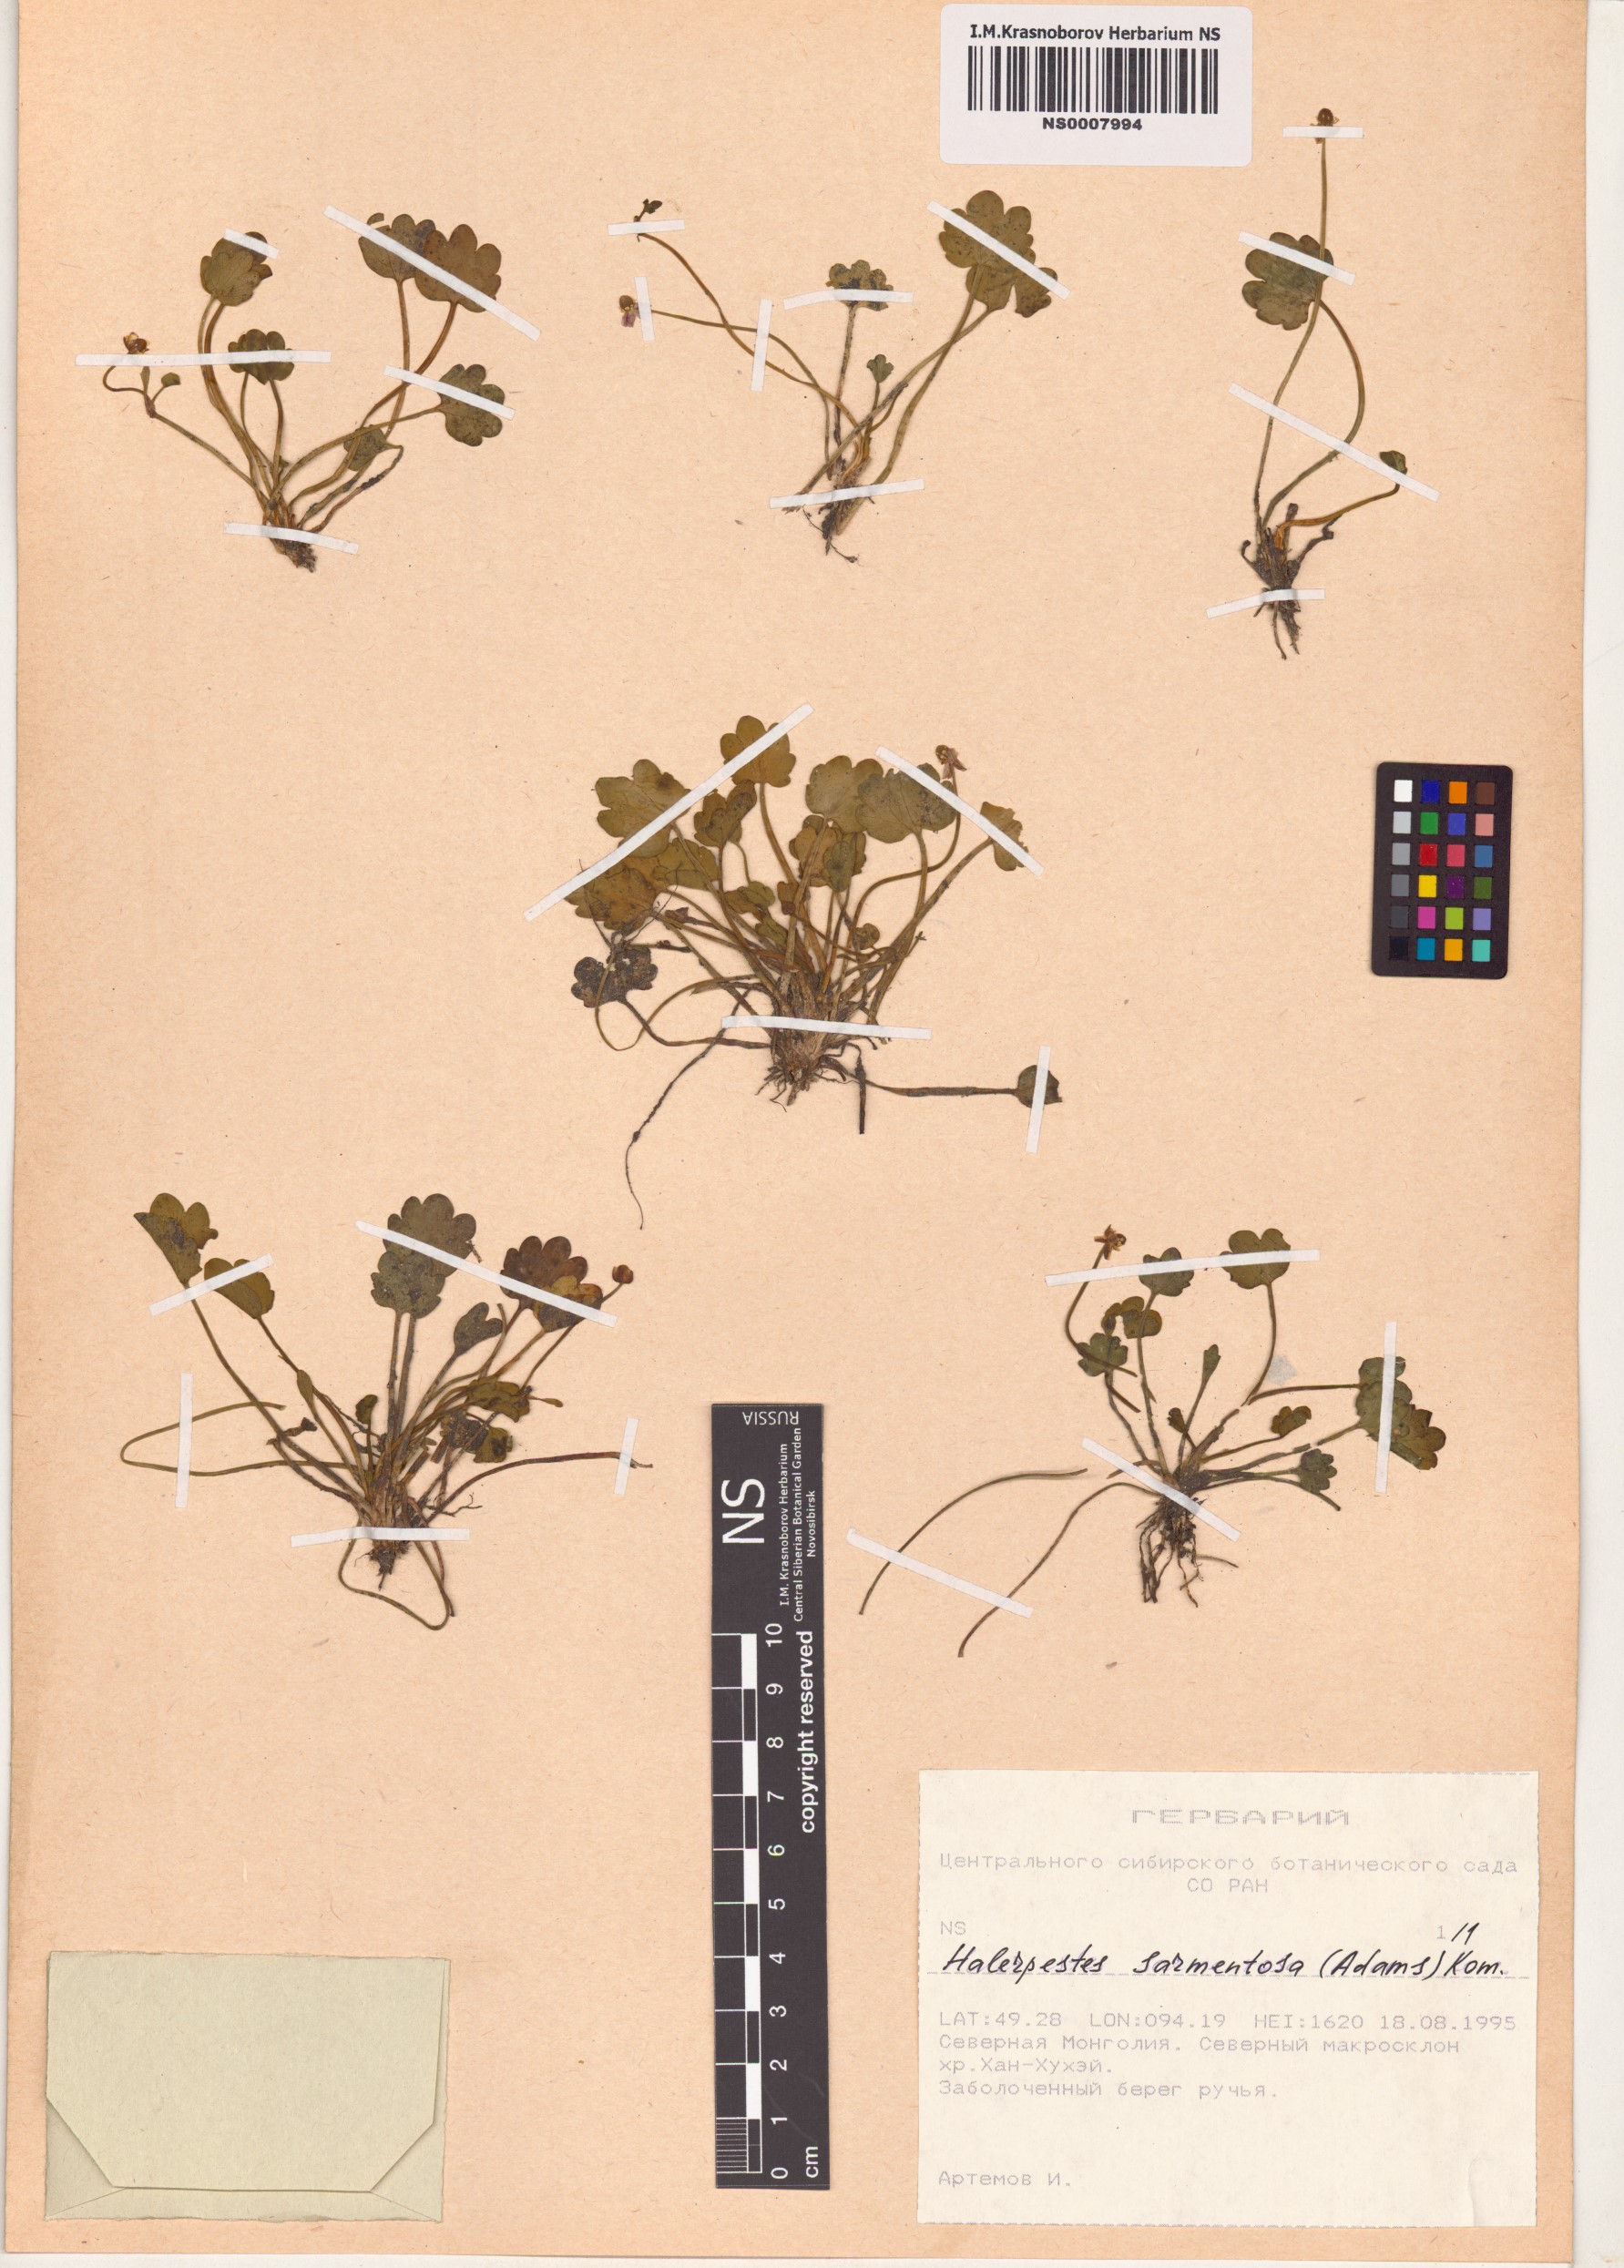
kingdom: Plantae
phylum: Tracheophyta
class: Magnoliopsida
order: Ranunculales
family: Ranunculaceae
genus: Halerpestes
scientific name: Halerpestes sarmentosus
